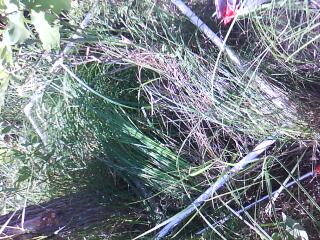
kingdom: Plantae
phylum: Tracheophyta
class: Magnoliopsida
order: Rosales
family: Rosaceae
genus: Rosa
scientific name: Rosa multiflora
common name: Multiflora rose
